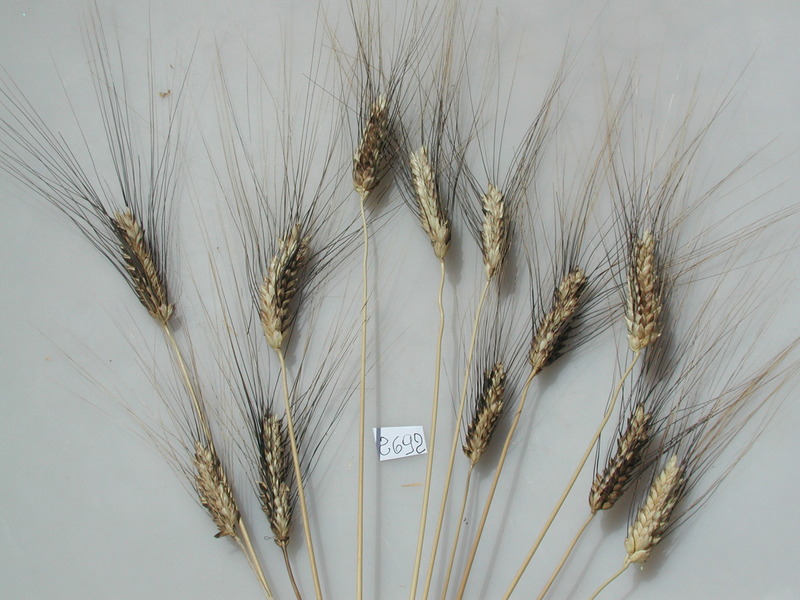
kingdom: Plantae
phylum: Tracheophyta
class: Liliopsida
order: Poales
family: Poaceae
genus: Triticum
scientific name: Triticum turgidum
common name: Wheat
